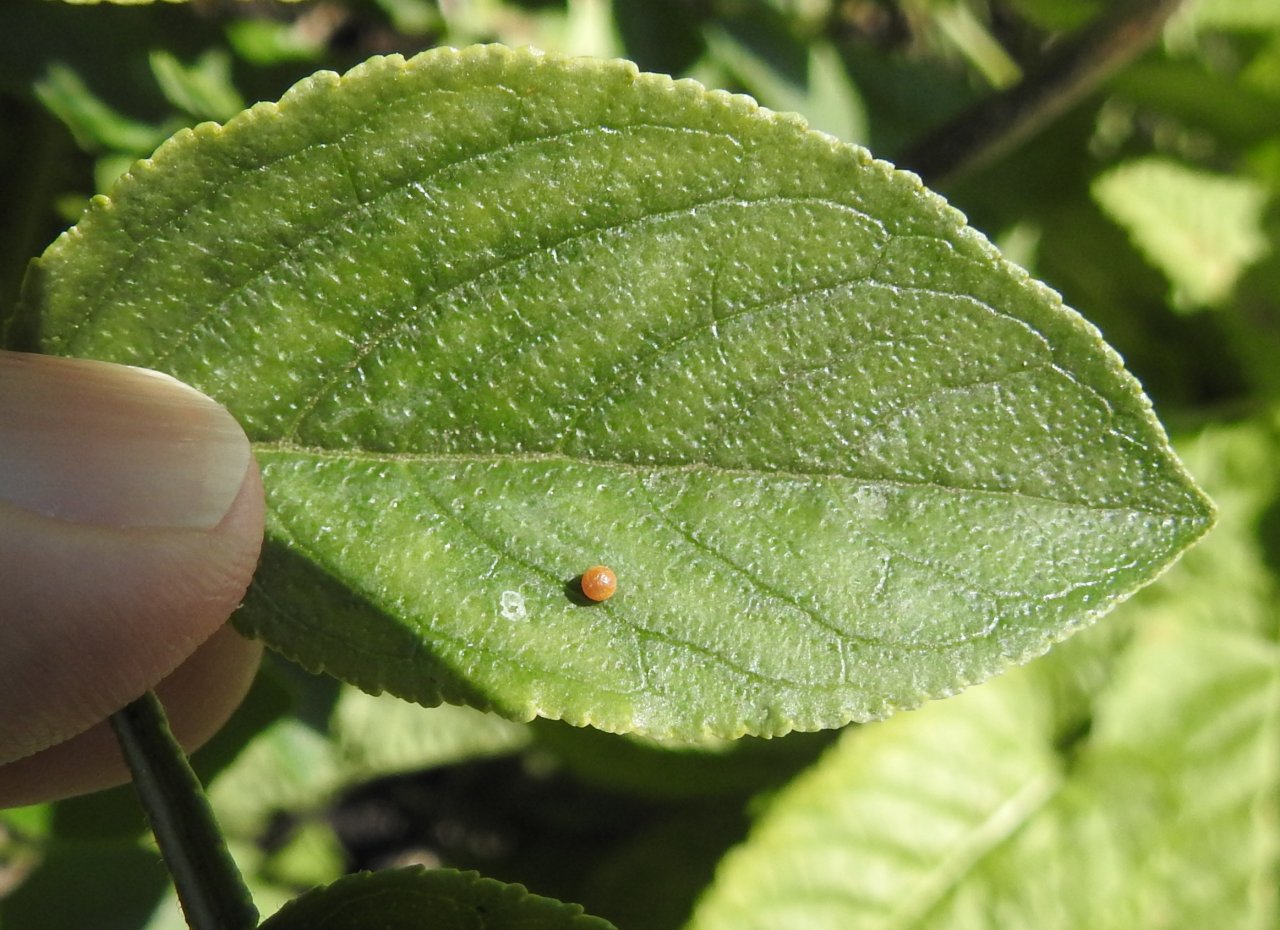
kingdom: Animalia
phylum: Arthropoda
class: Insecta
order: Lepidoptera
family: Papilionidae
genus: Papilio
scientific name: Papilio cresphontes
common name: Eastern Giant Swallowtail
